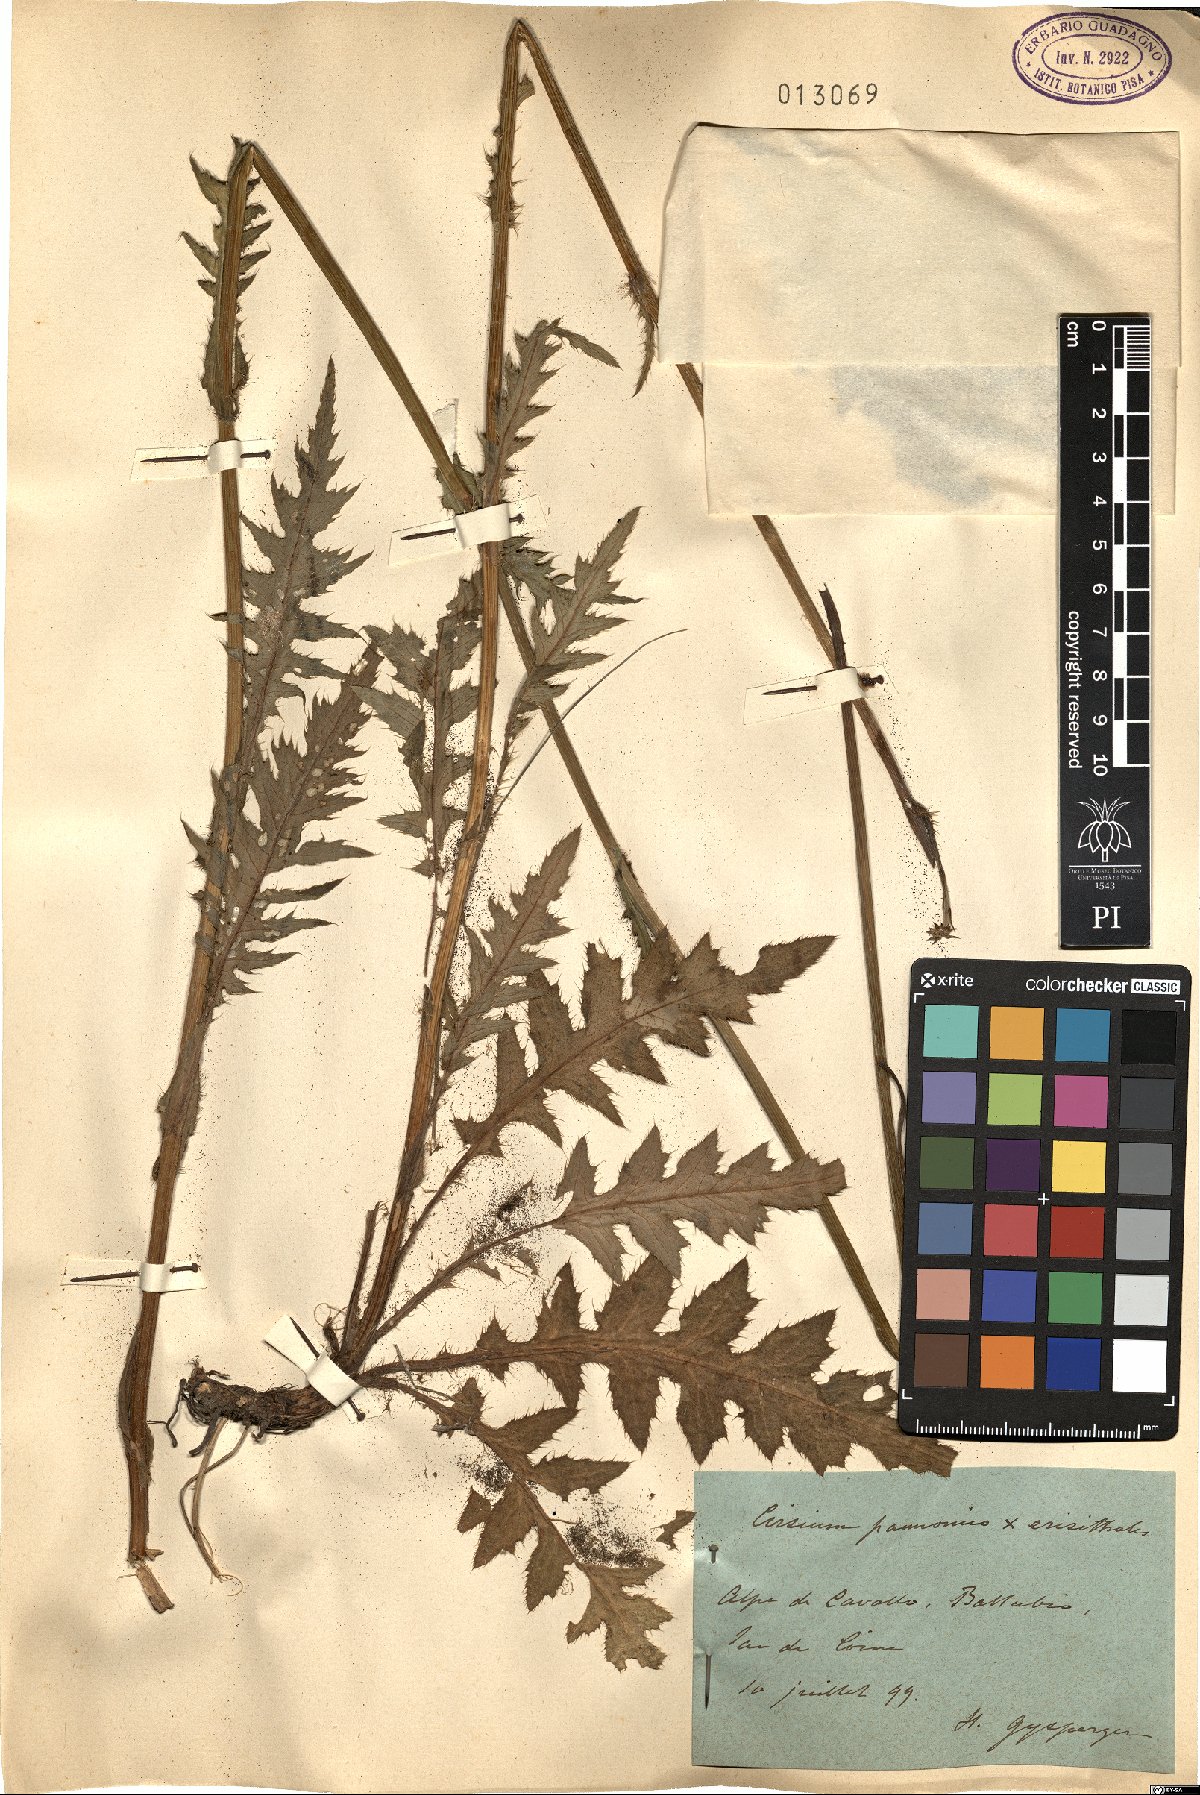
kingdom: Plantae
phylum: Tracheophyta
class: Magnoliopsida
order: Asterales
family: Asteraceae
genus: Cirsium
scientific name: Cirsium pannonicum
